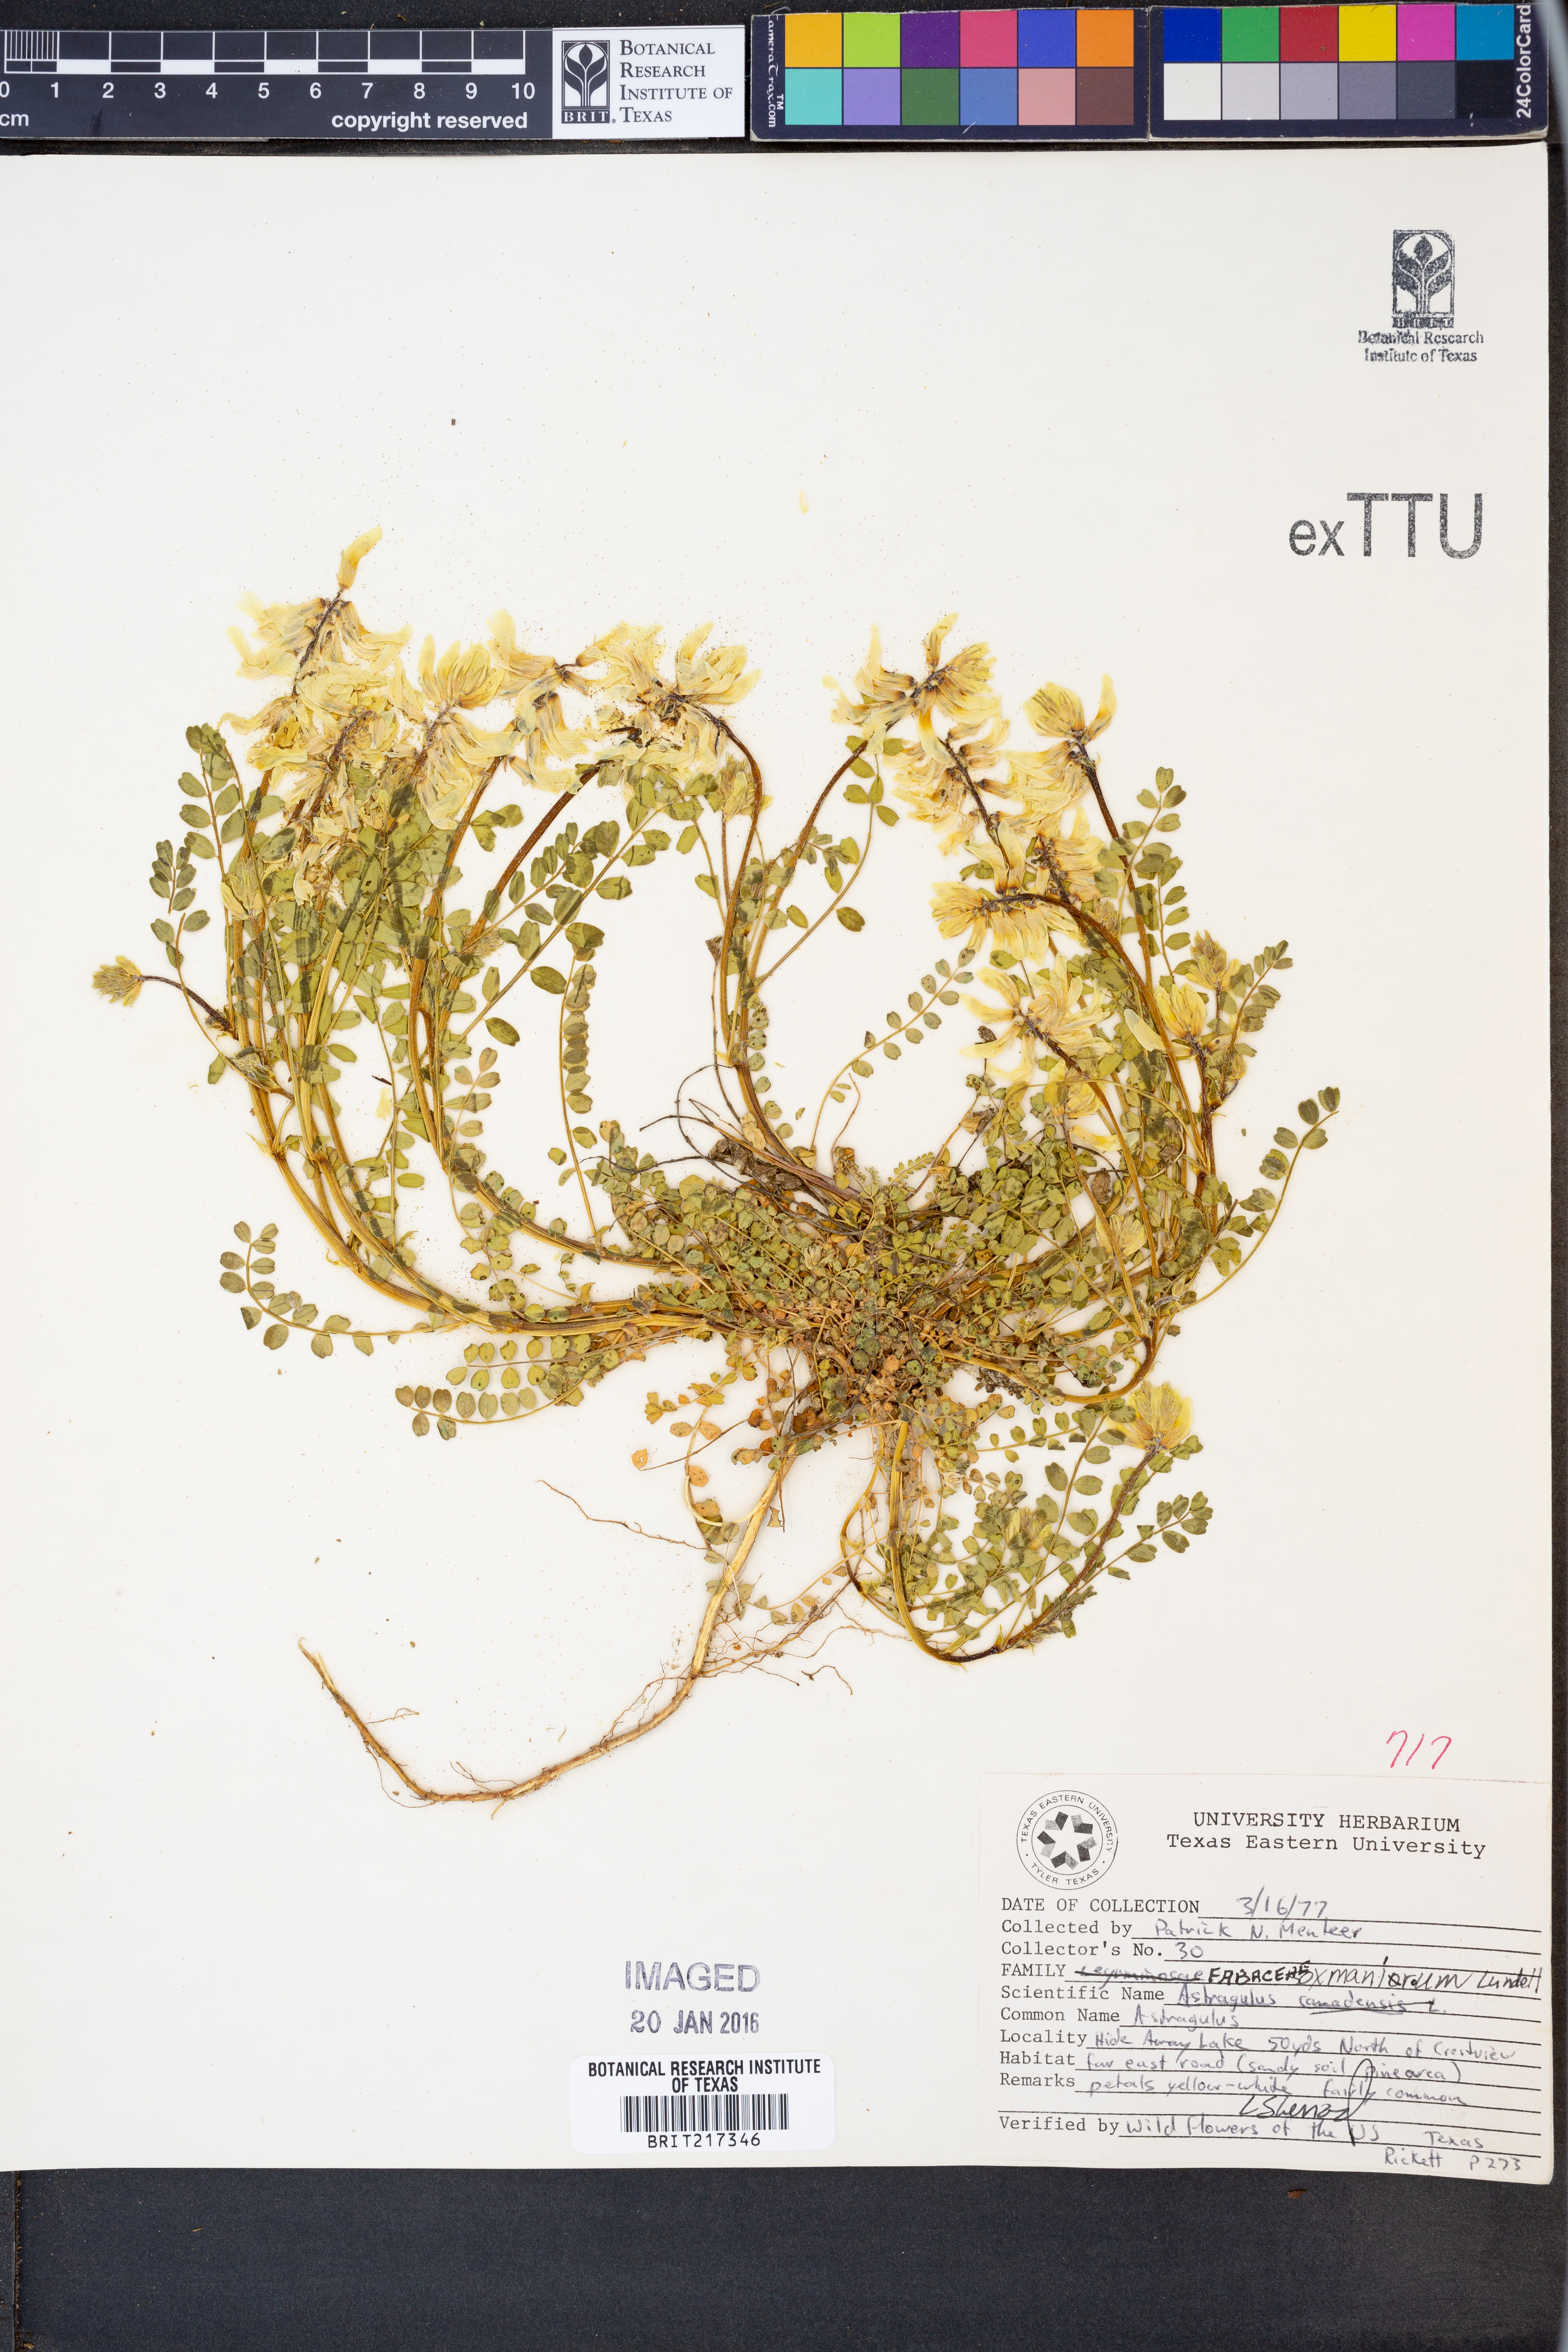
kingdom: Plantae
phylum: Tracheophyta
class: Magnoliopsida
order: Fabales
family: Fabaceae
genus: Astragalus
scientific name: Astragalus soxmaniorum
